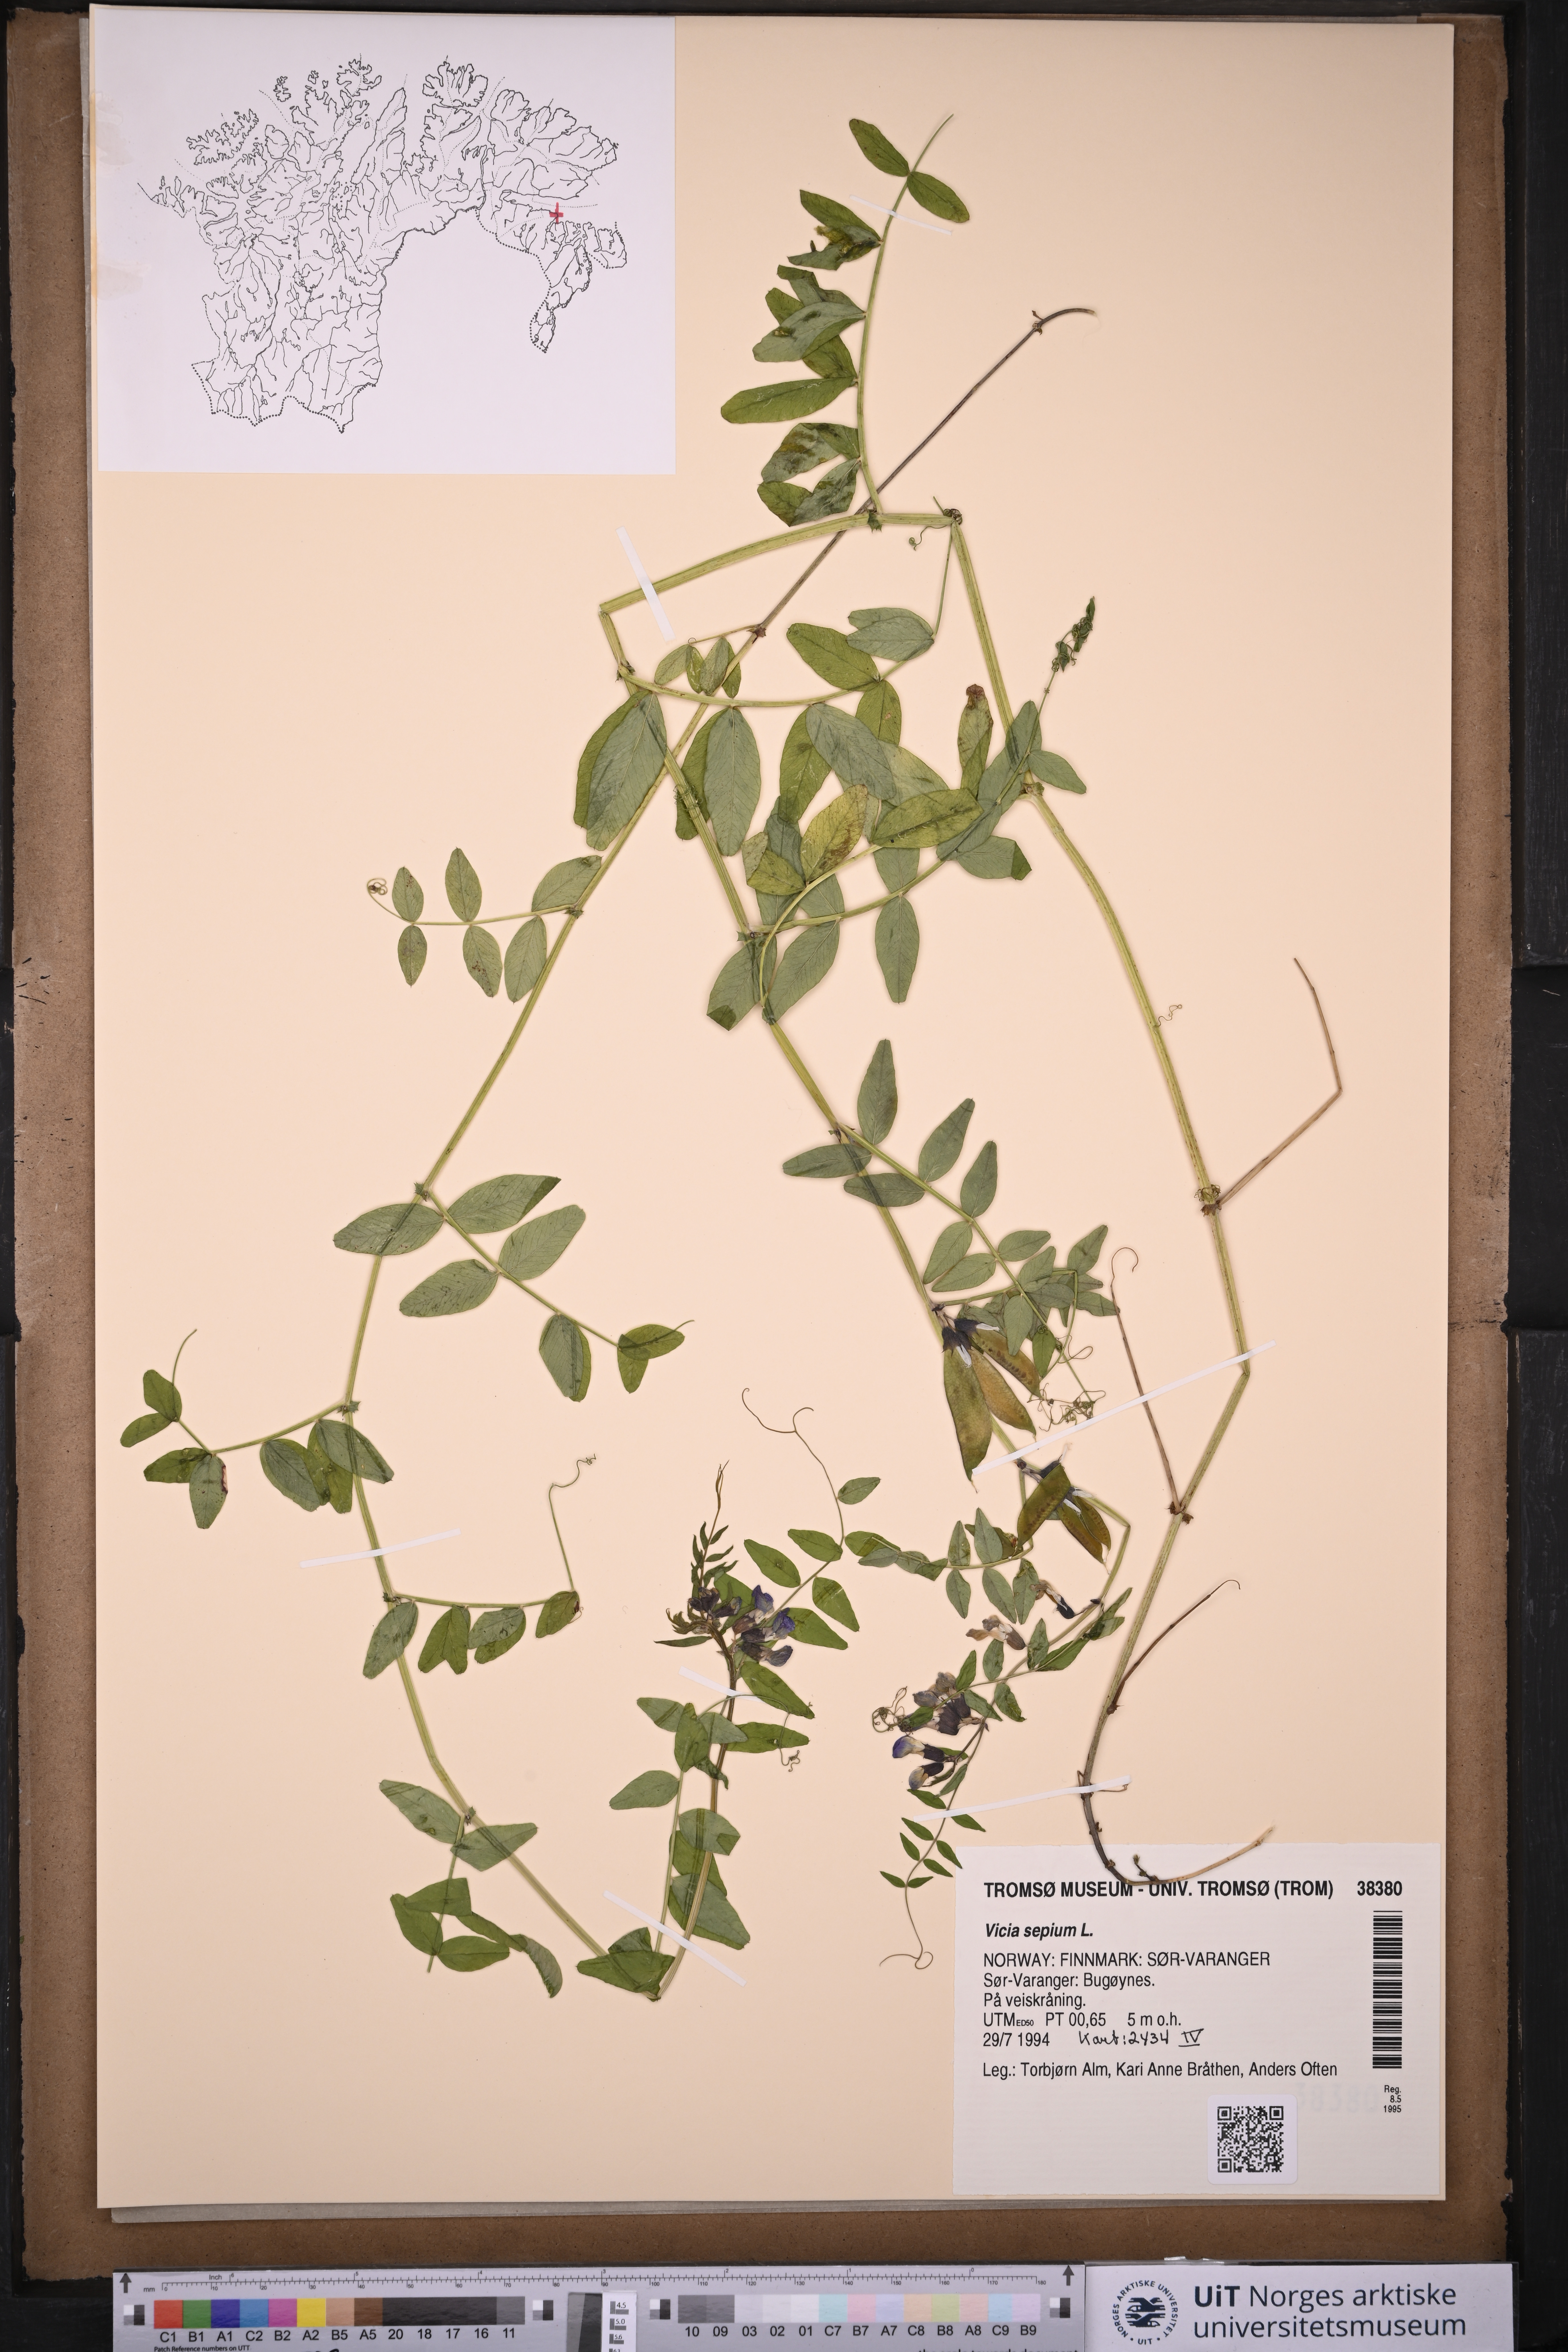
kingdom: Plantae
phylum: Tracheophyta
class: Magnoliopsida
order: Fabales
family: Fabaceae
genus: Vicia
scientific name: Vicia sepium
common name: Bush vetch
